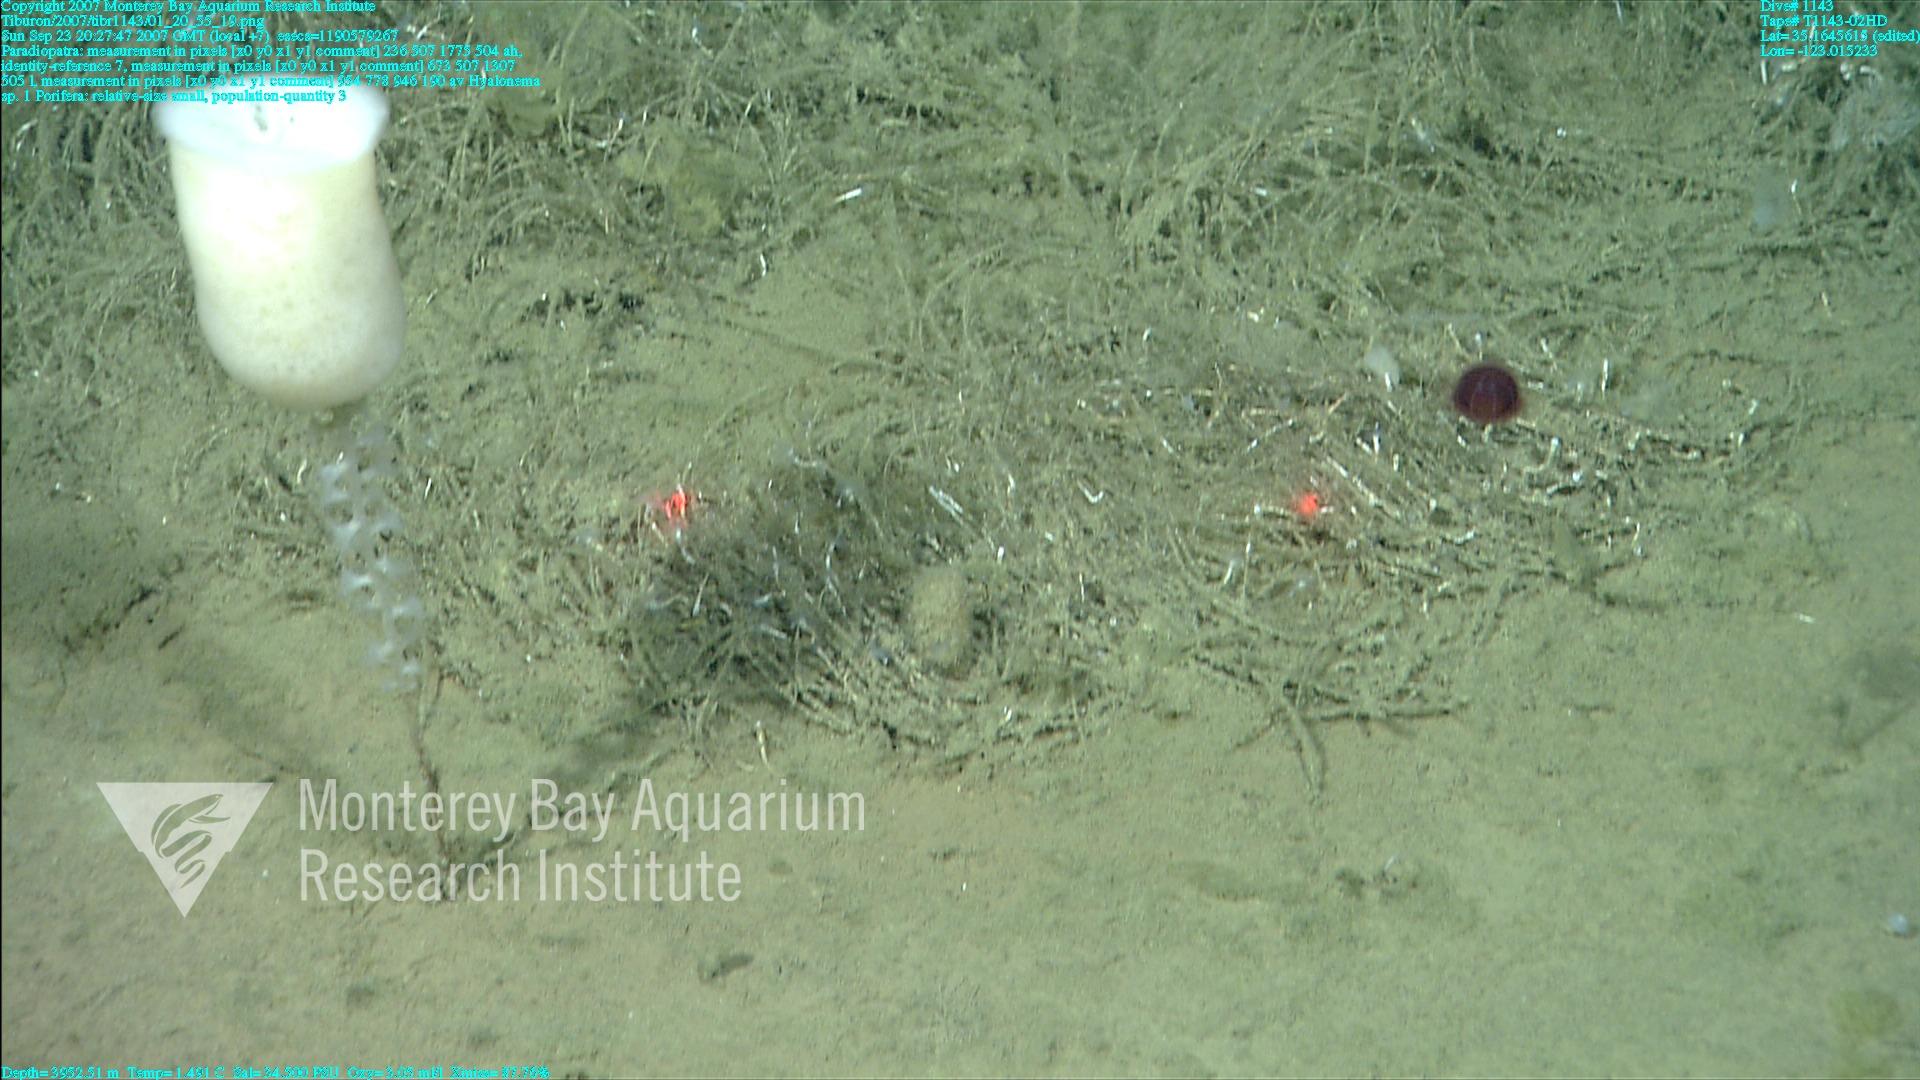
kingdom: Animalia
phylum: Porifera
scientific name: Porifera
